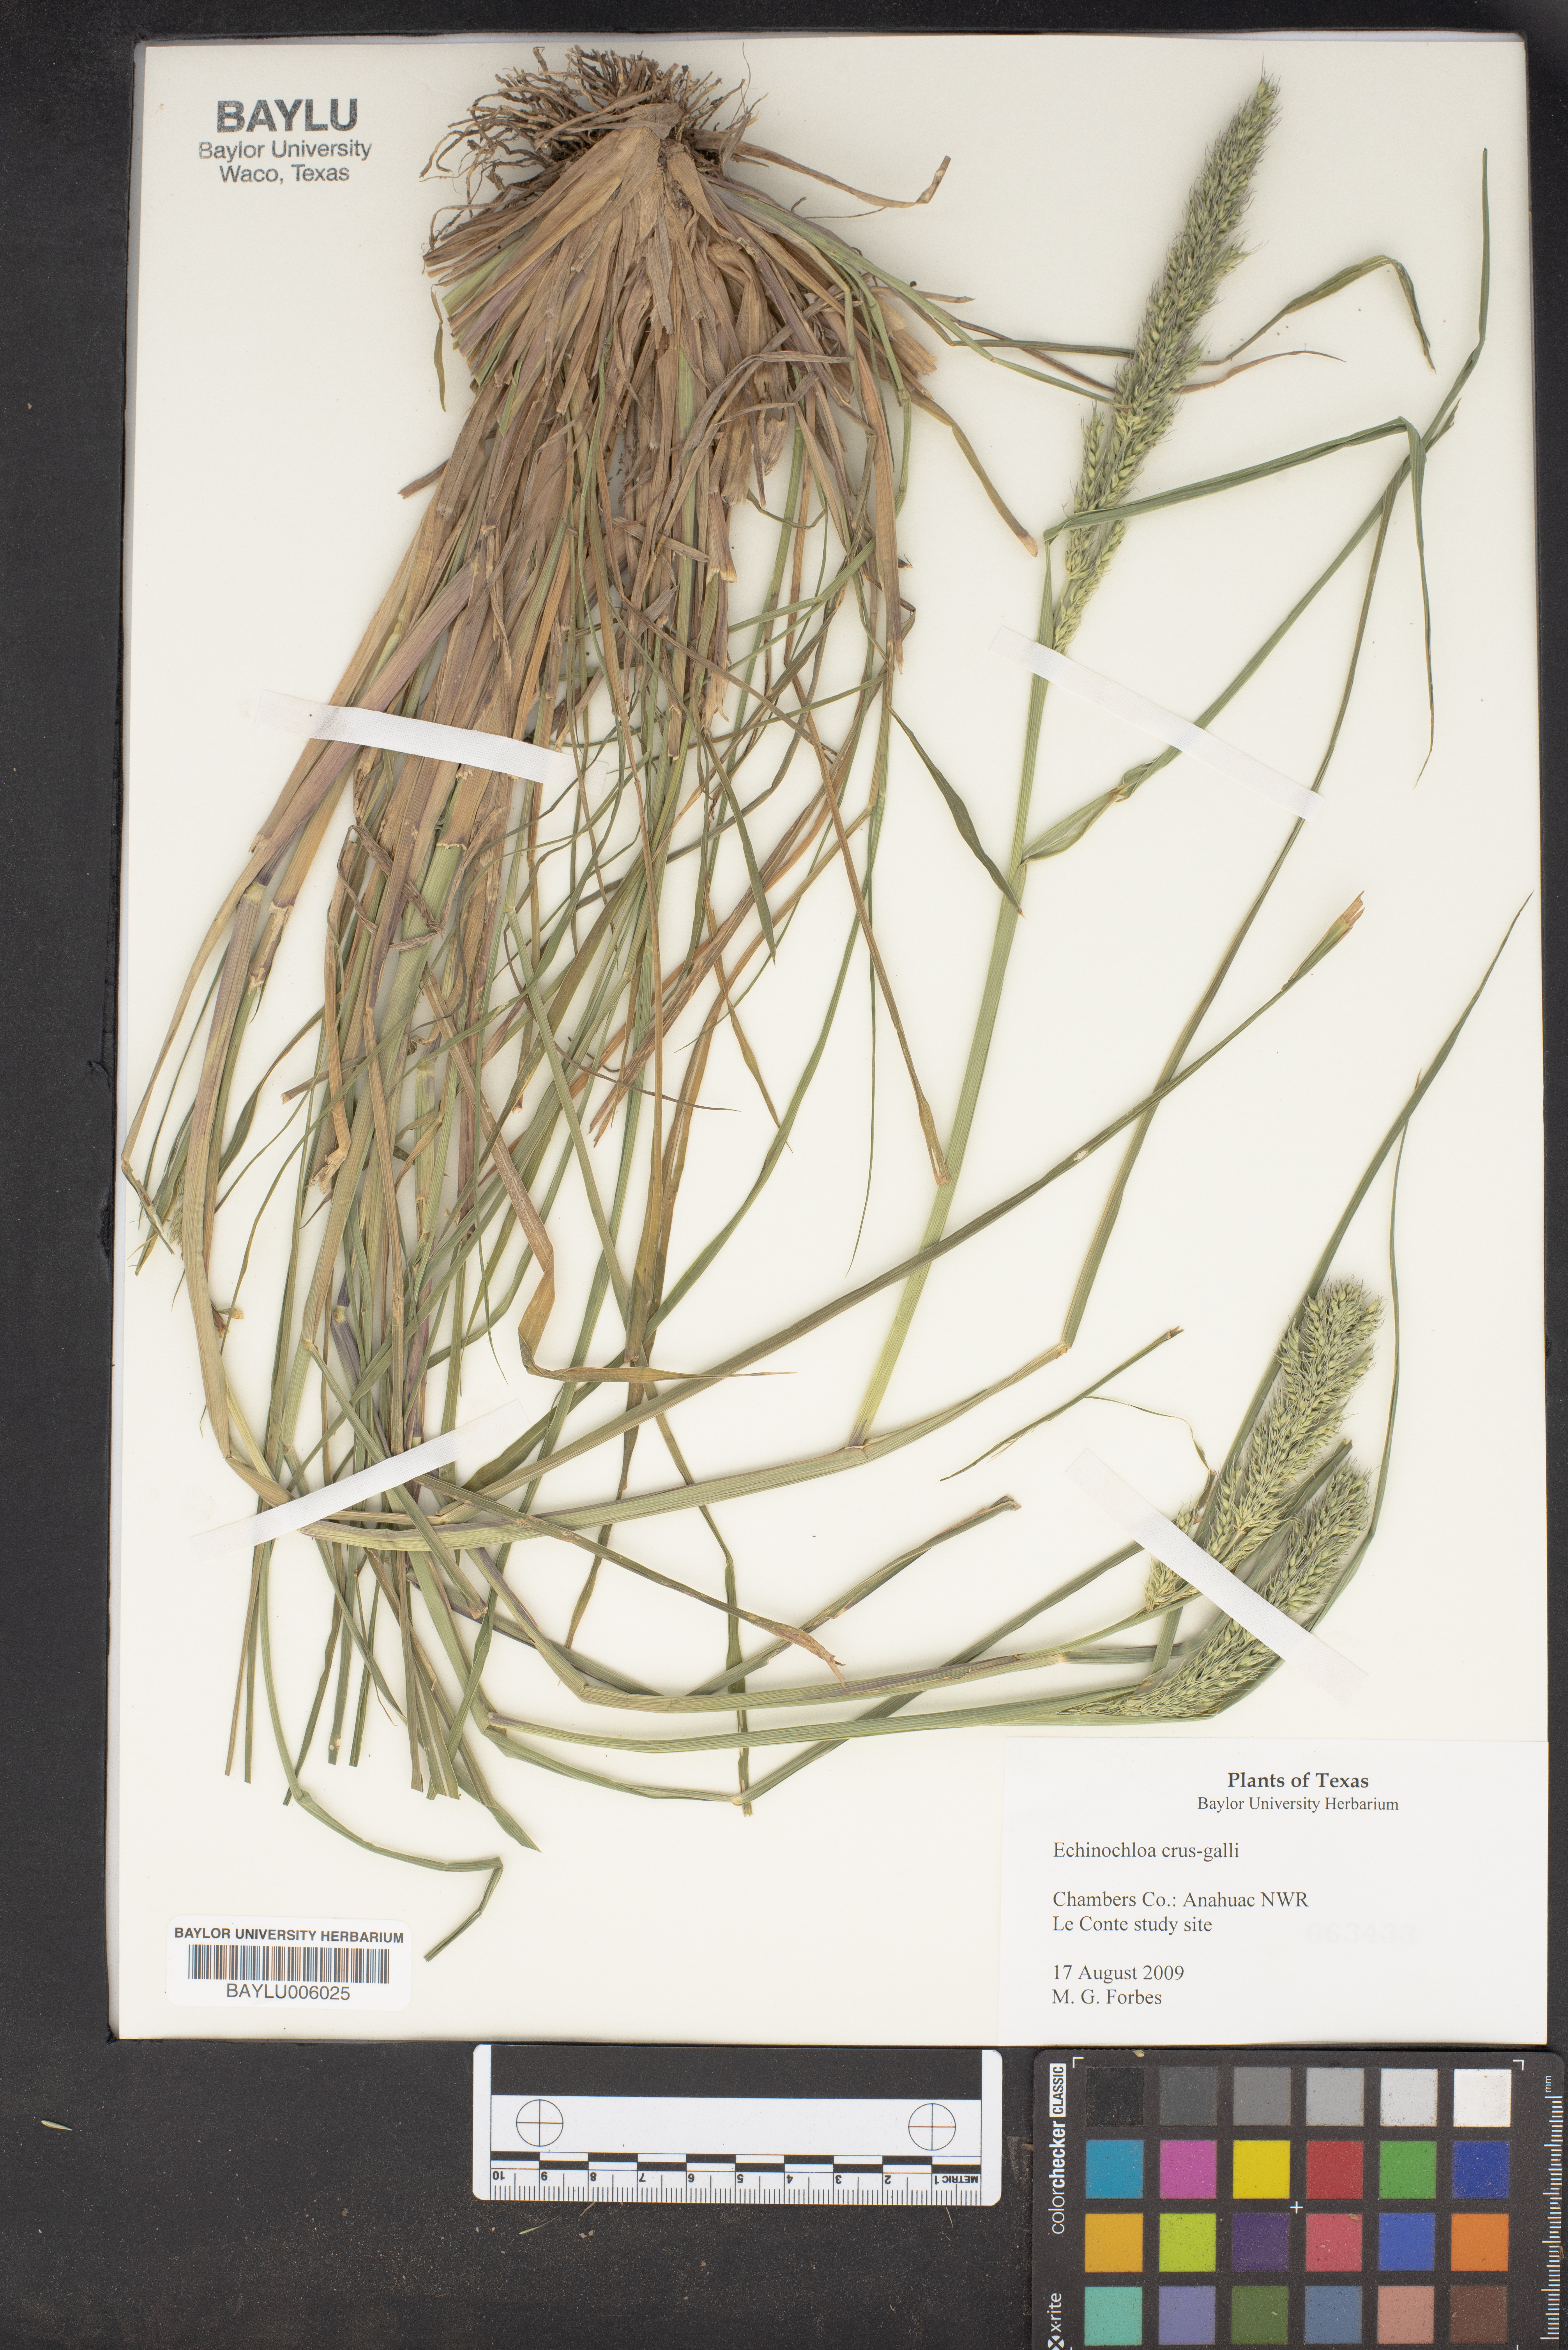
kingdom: Plantae
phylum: Tracheophyta
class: Liliopsida
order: Poales
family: Poaceae
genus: Echinochloa
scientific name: Echinochloa crus-galli
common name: Cockspur
